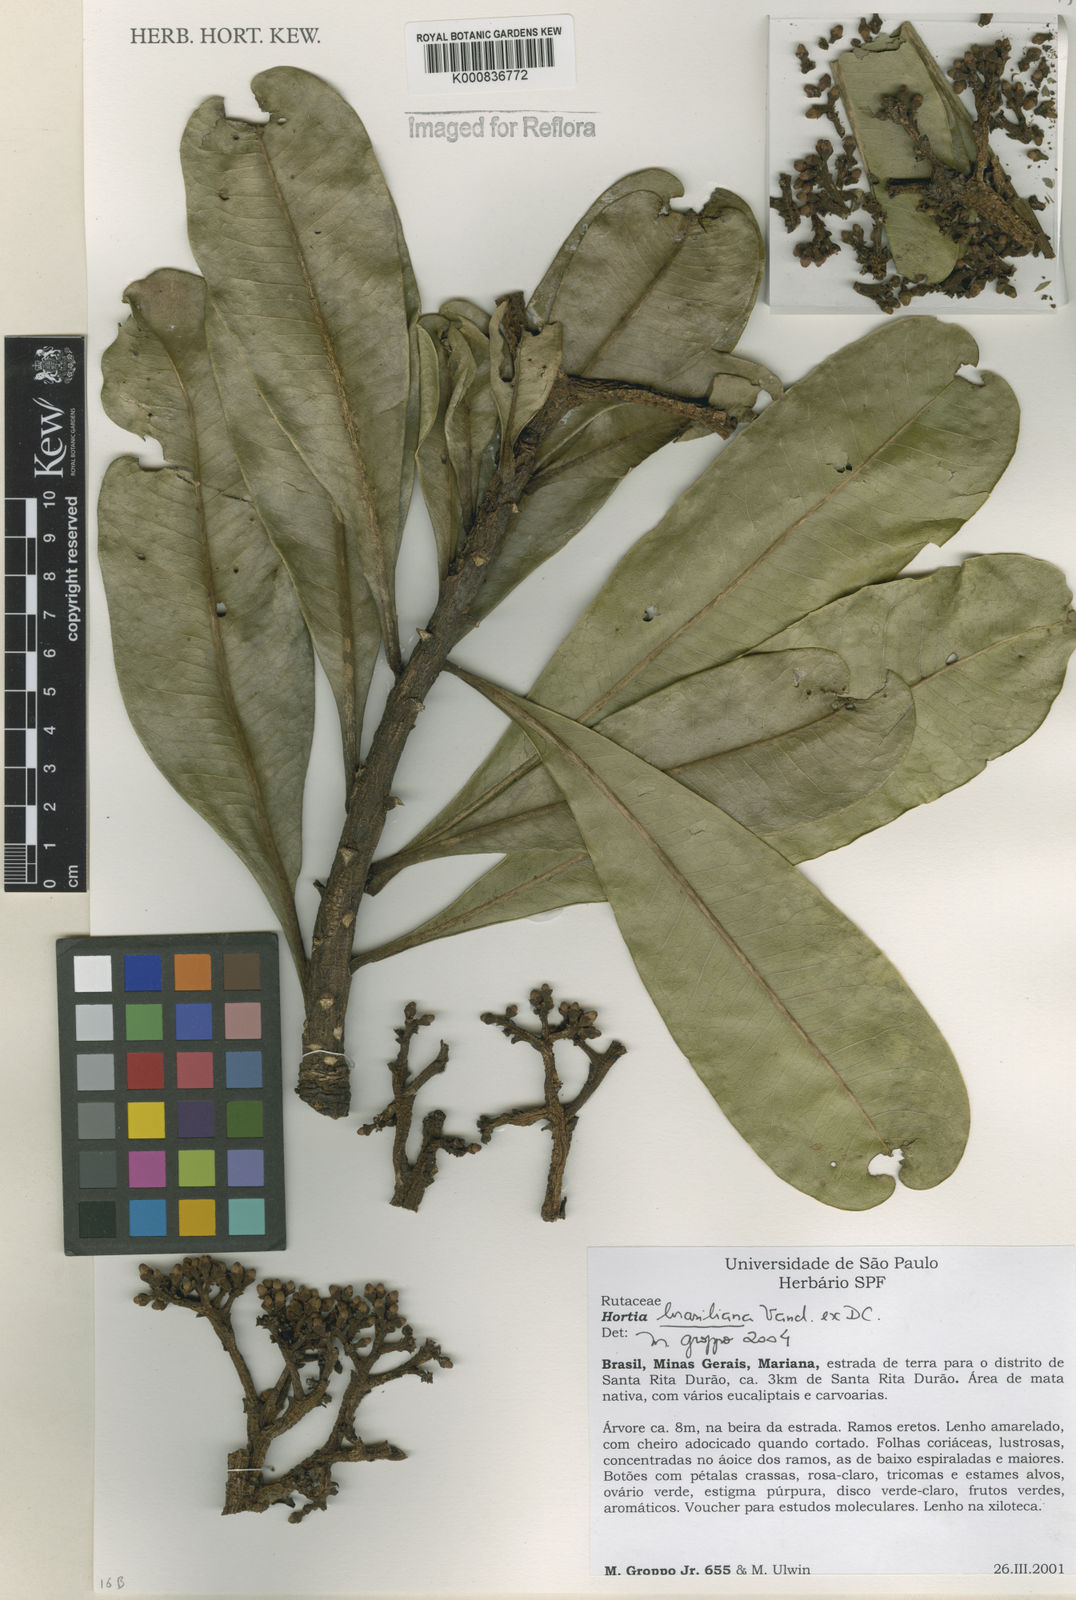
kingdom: Plantae
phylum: Tracheophyta
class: Magnoliopsida
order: Sapindales
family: Rutaceae
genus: Hortia
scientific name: Hortia brasiliana
